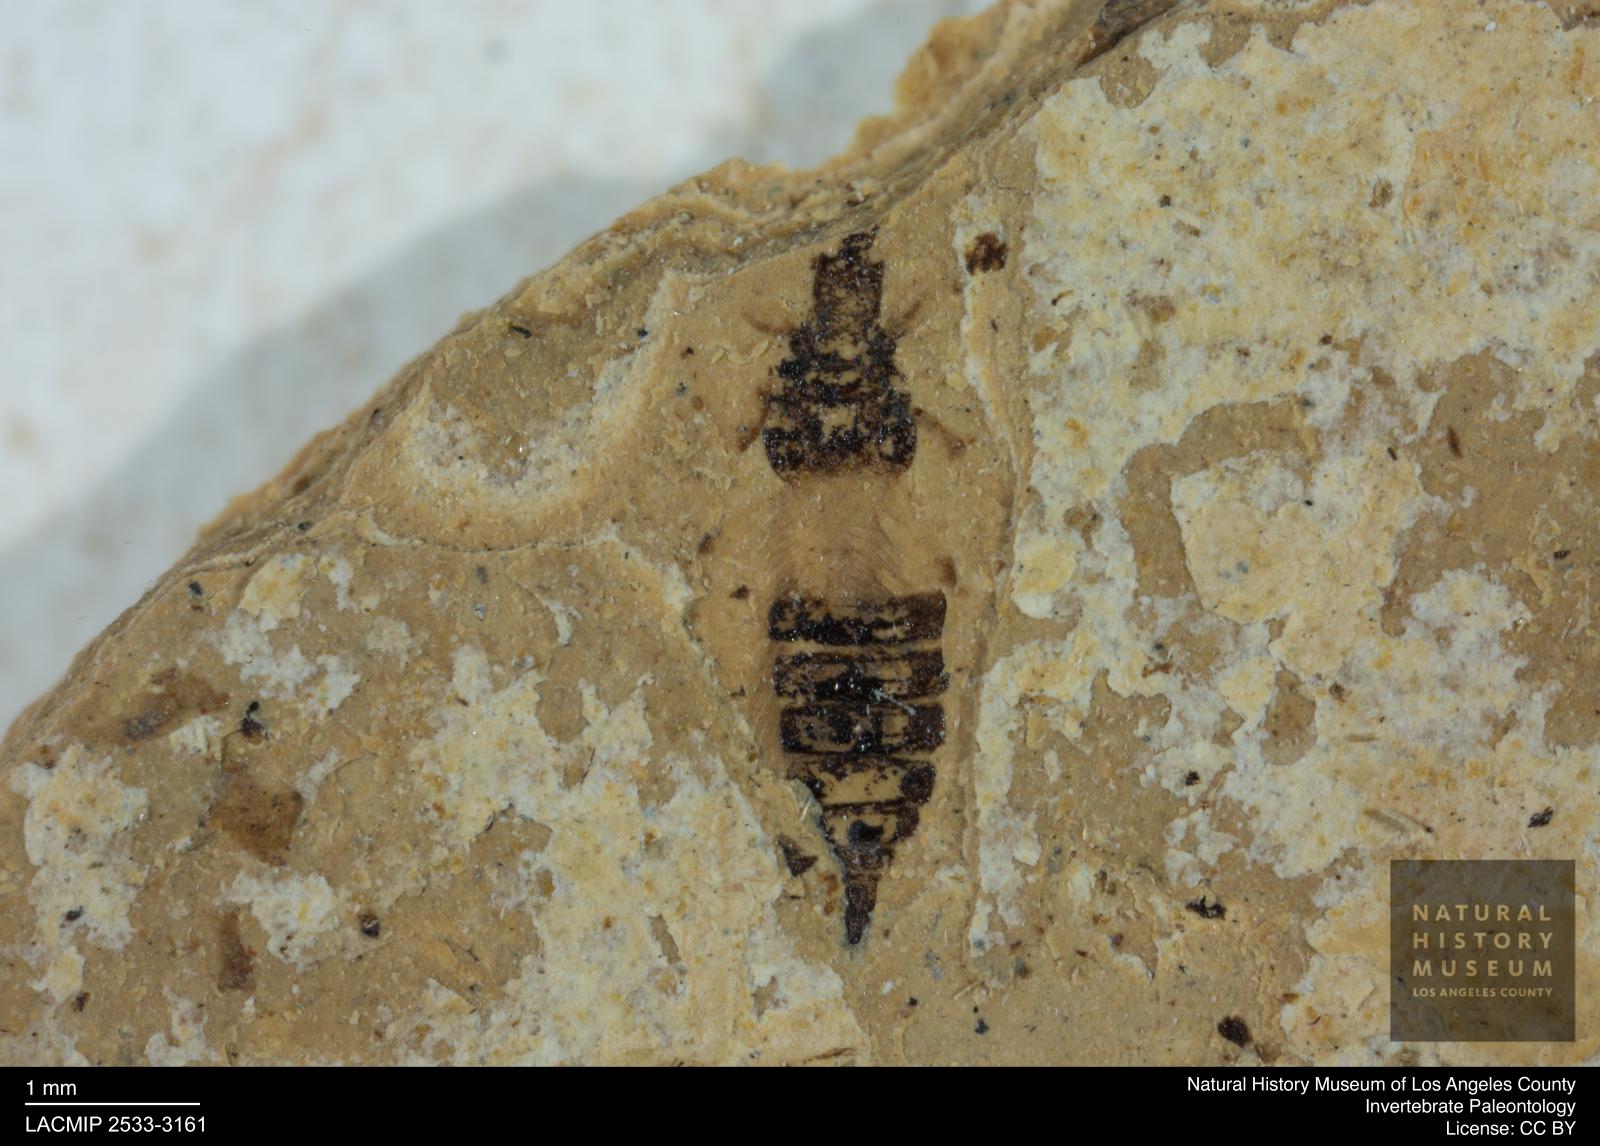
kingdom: Animalia
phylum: Arthropoda
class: Insecta
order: Thysanoptera
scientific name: Thysanoptera
